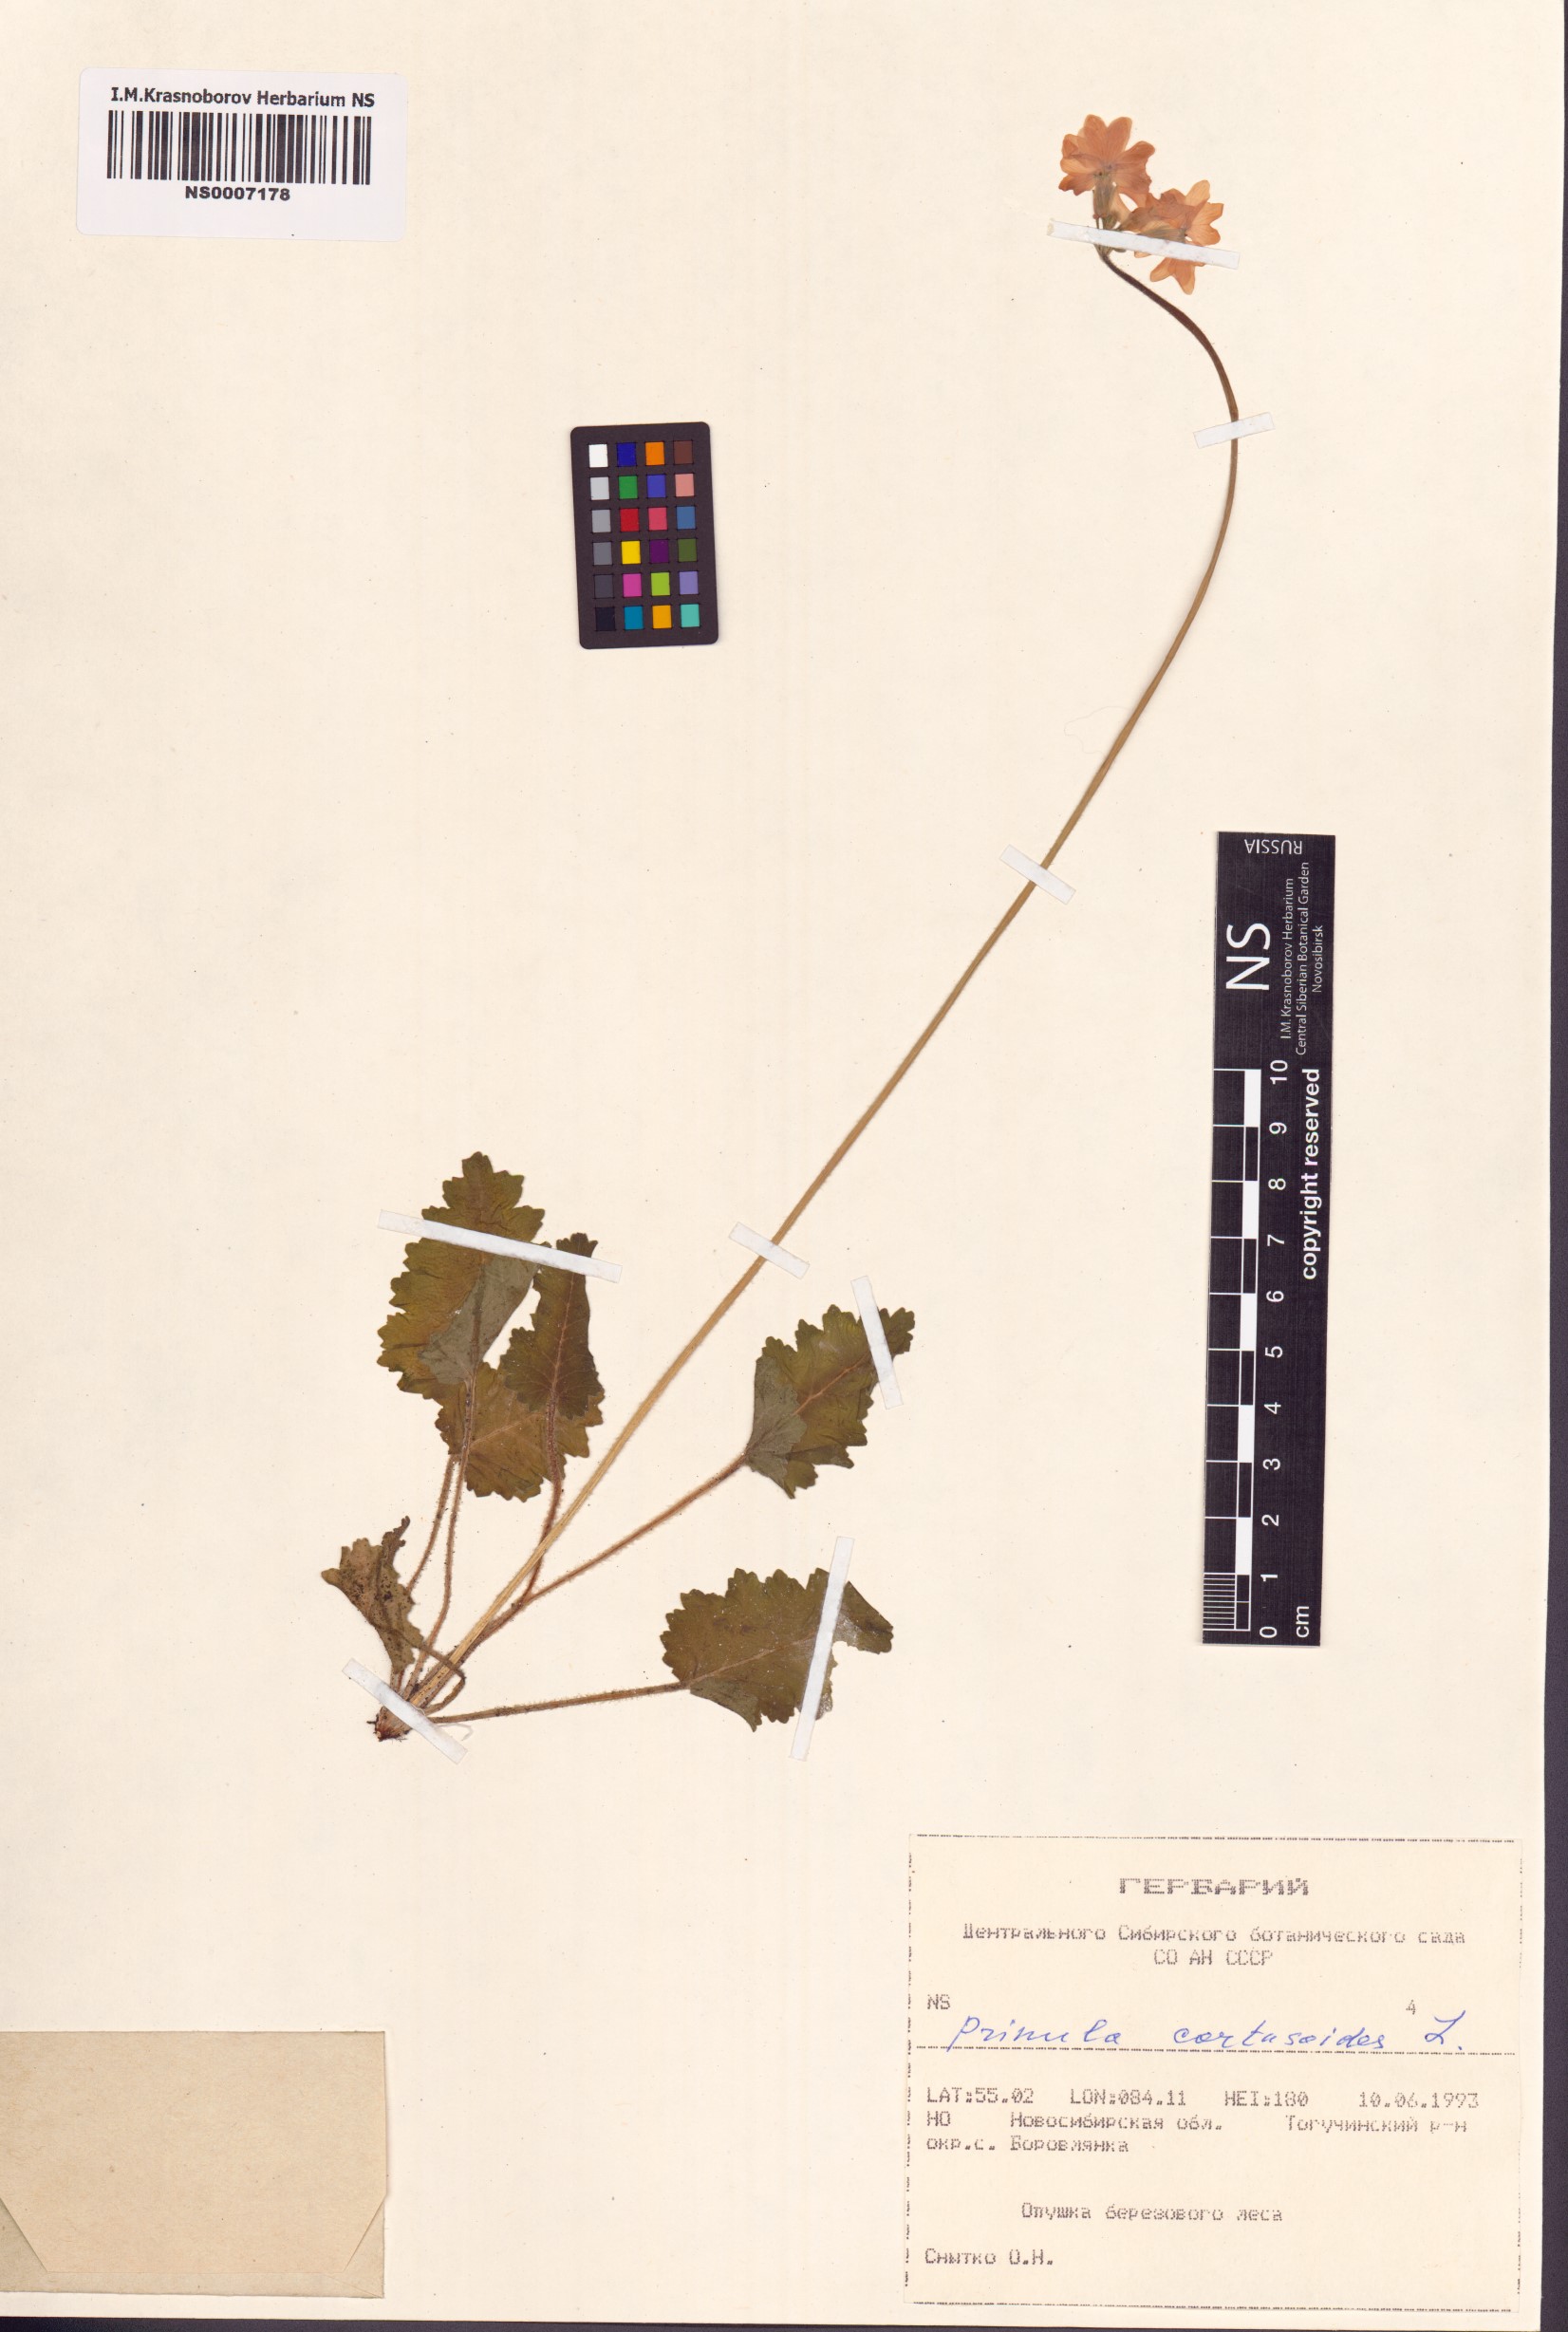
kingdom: Plantae
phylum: Tracheophyta
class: Magnoliopsida
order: Ericales
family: Primulaceae
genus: Primula
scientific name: Primula cortusoides
